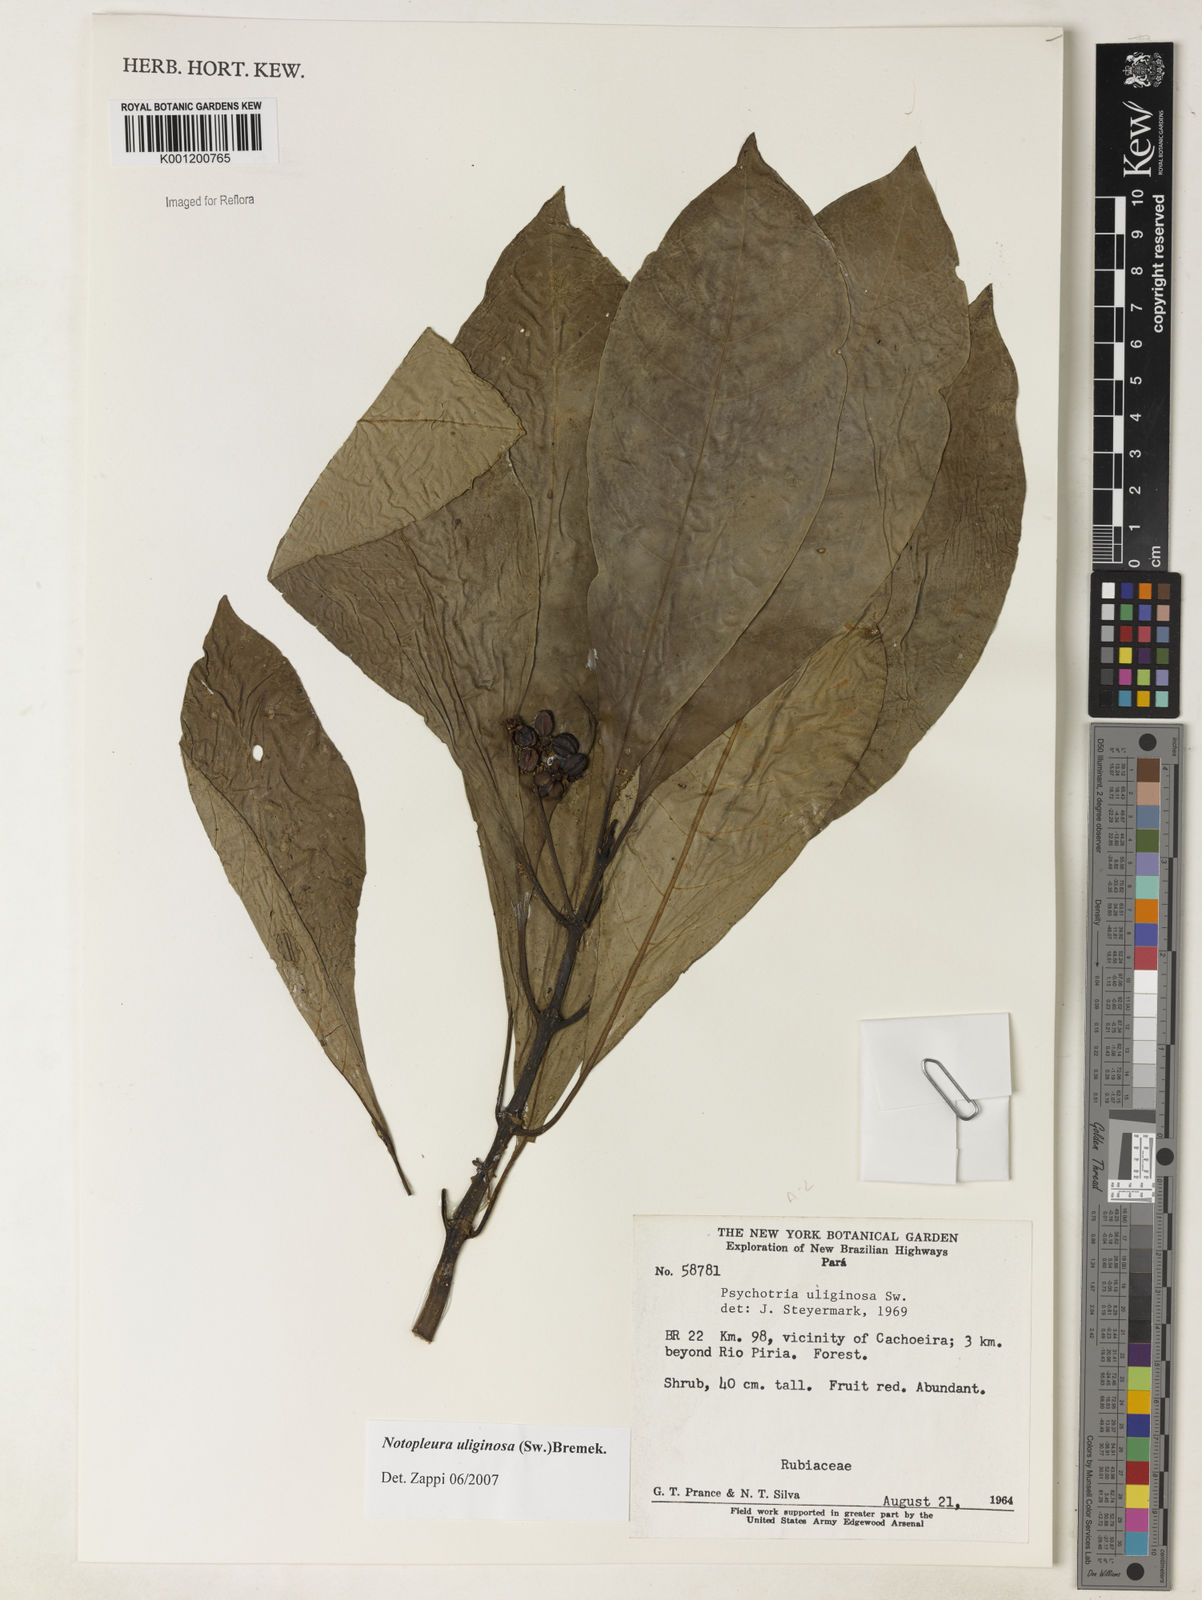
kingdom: Plantae
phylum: Tracheophyta
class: Magnoliopsida
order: Gentianales
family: Rubiaceae
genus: Notopleura
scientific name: Notopleura uliginosa
